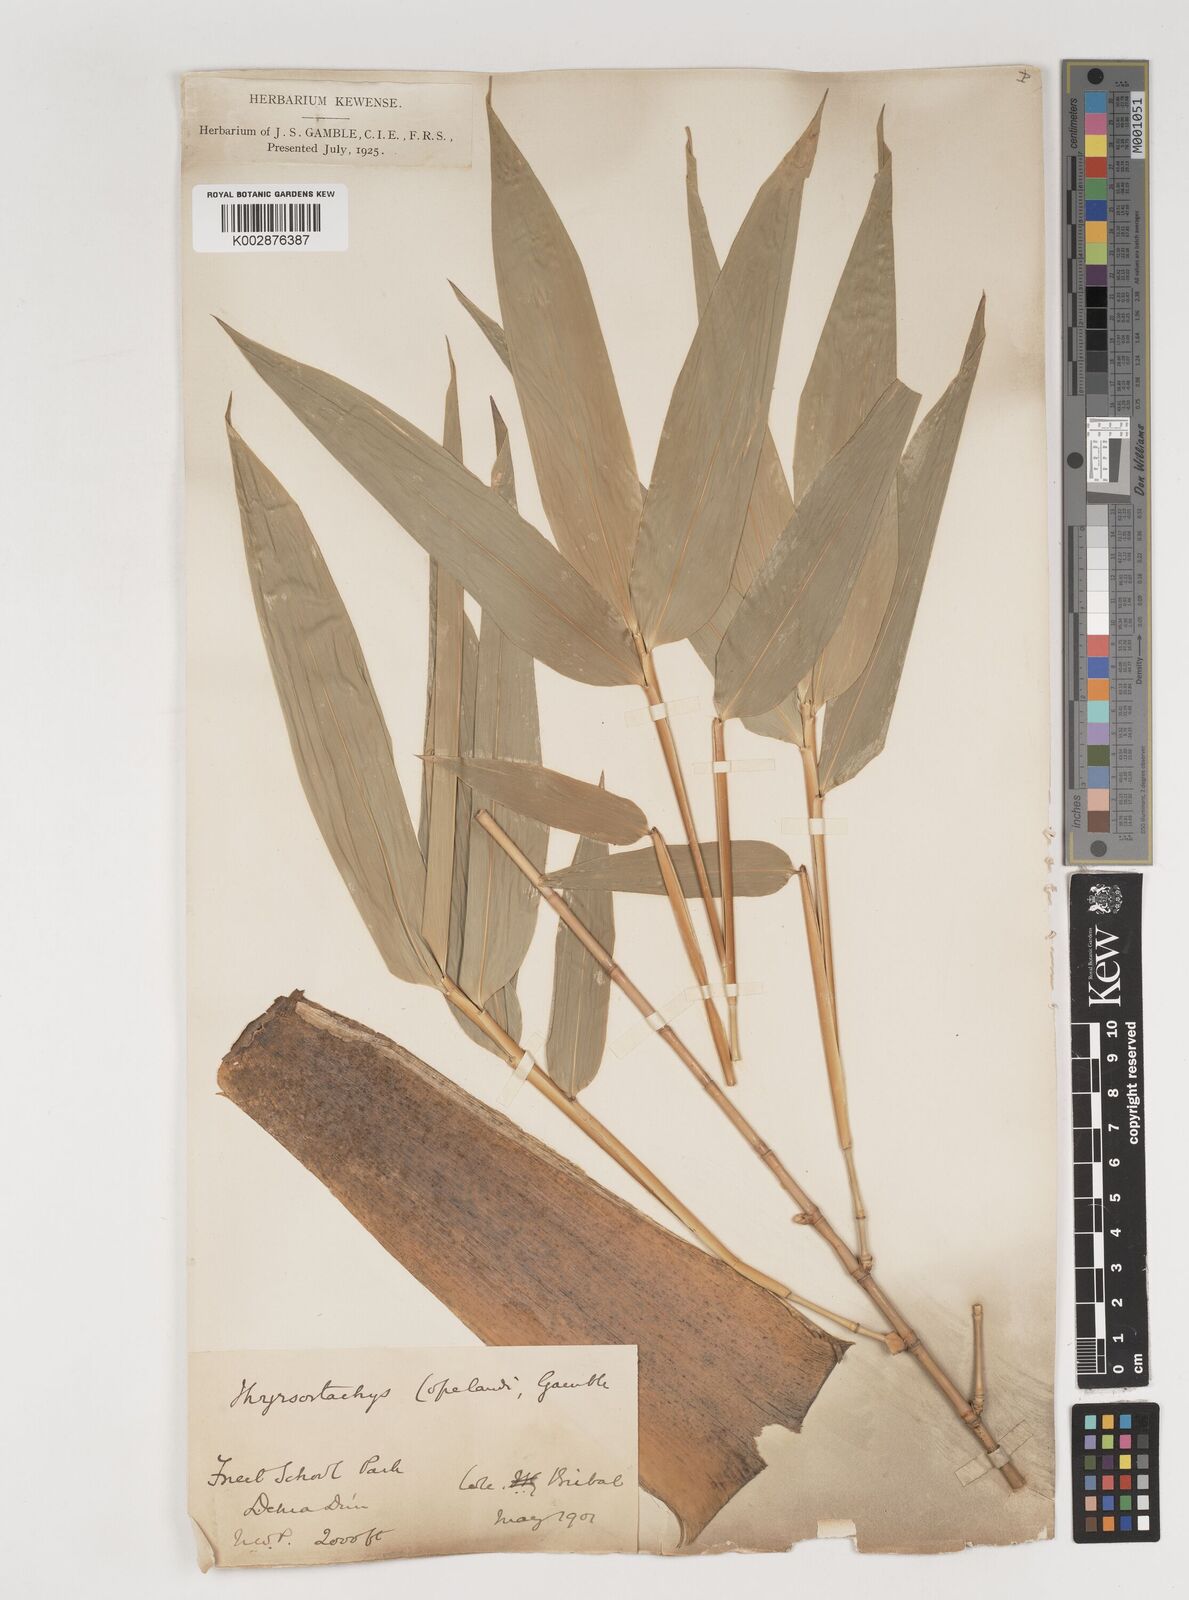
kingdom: Plantae
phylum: Tracheophyta
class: Liliopsida
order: Poales
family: Poaceae
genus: Bambusa
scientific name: Bambusa copelandii
